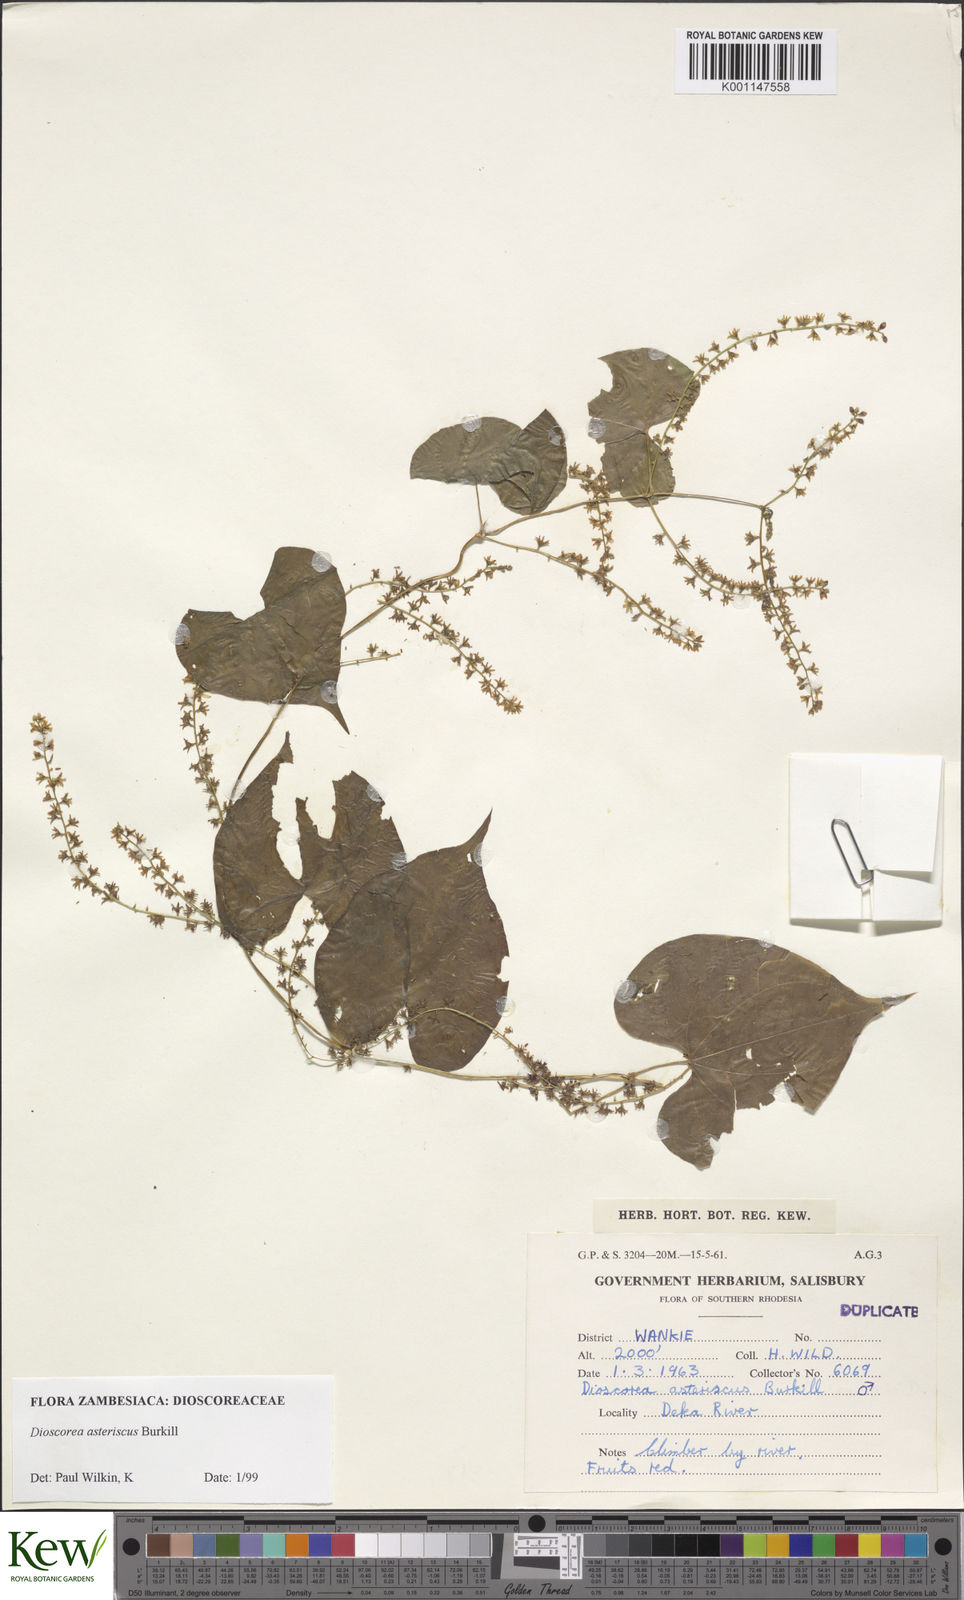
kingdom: Plantae
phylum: Tracheophyta
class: Liliopsida
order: Dioscoreales
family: Dioscoreaceae
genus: Dioscorea
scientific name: Dioscorea asteriscus
